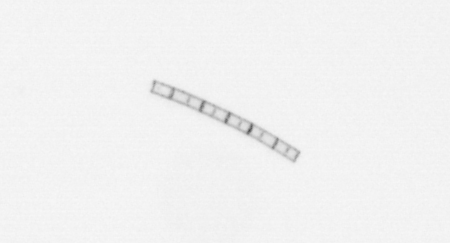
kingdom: Chromista
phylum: Ochrophyta
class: Bacillariophyceae
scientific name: Bacillariophyceae
